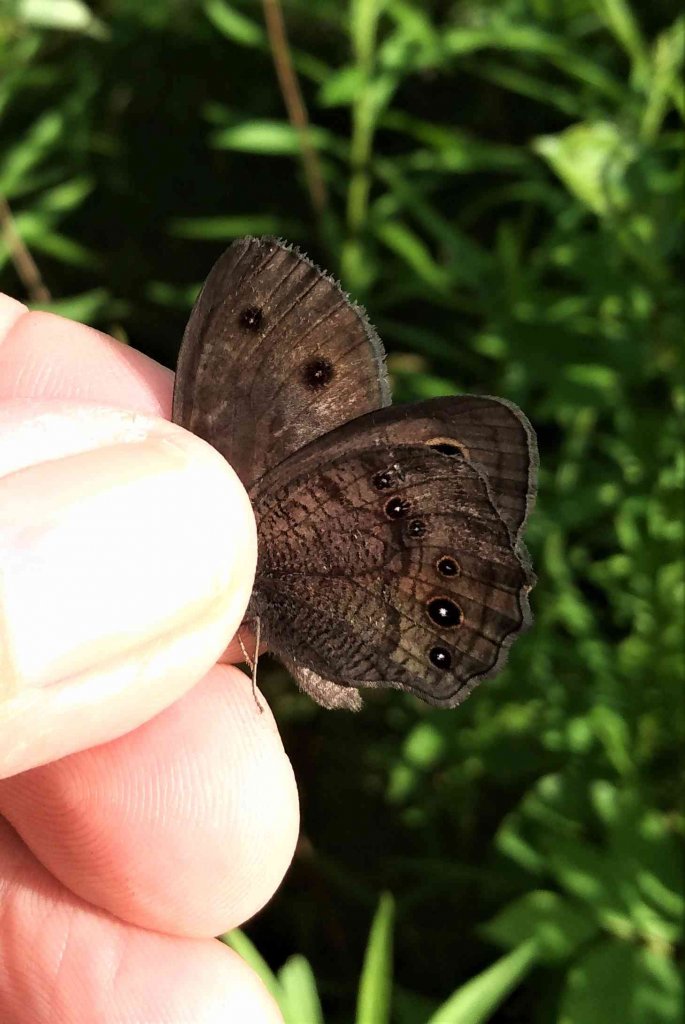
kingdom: Animalia
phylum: Arthropoda
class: Insecta
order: Lepidoptera
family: Nymphalidae
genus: Cercyonis
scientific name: Cercyonis pegala
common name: Common Wood-Nymph
